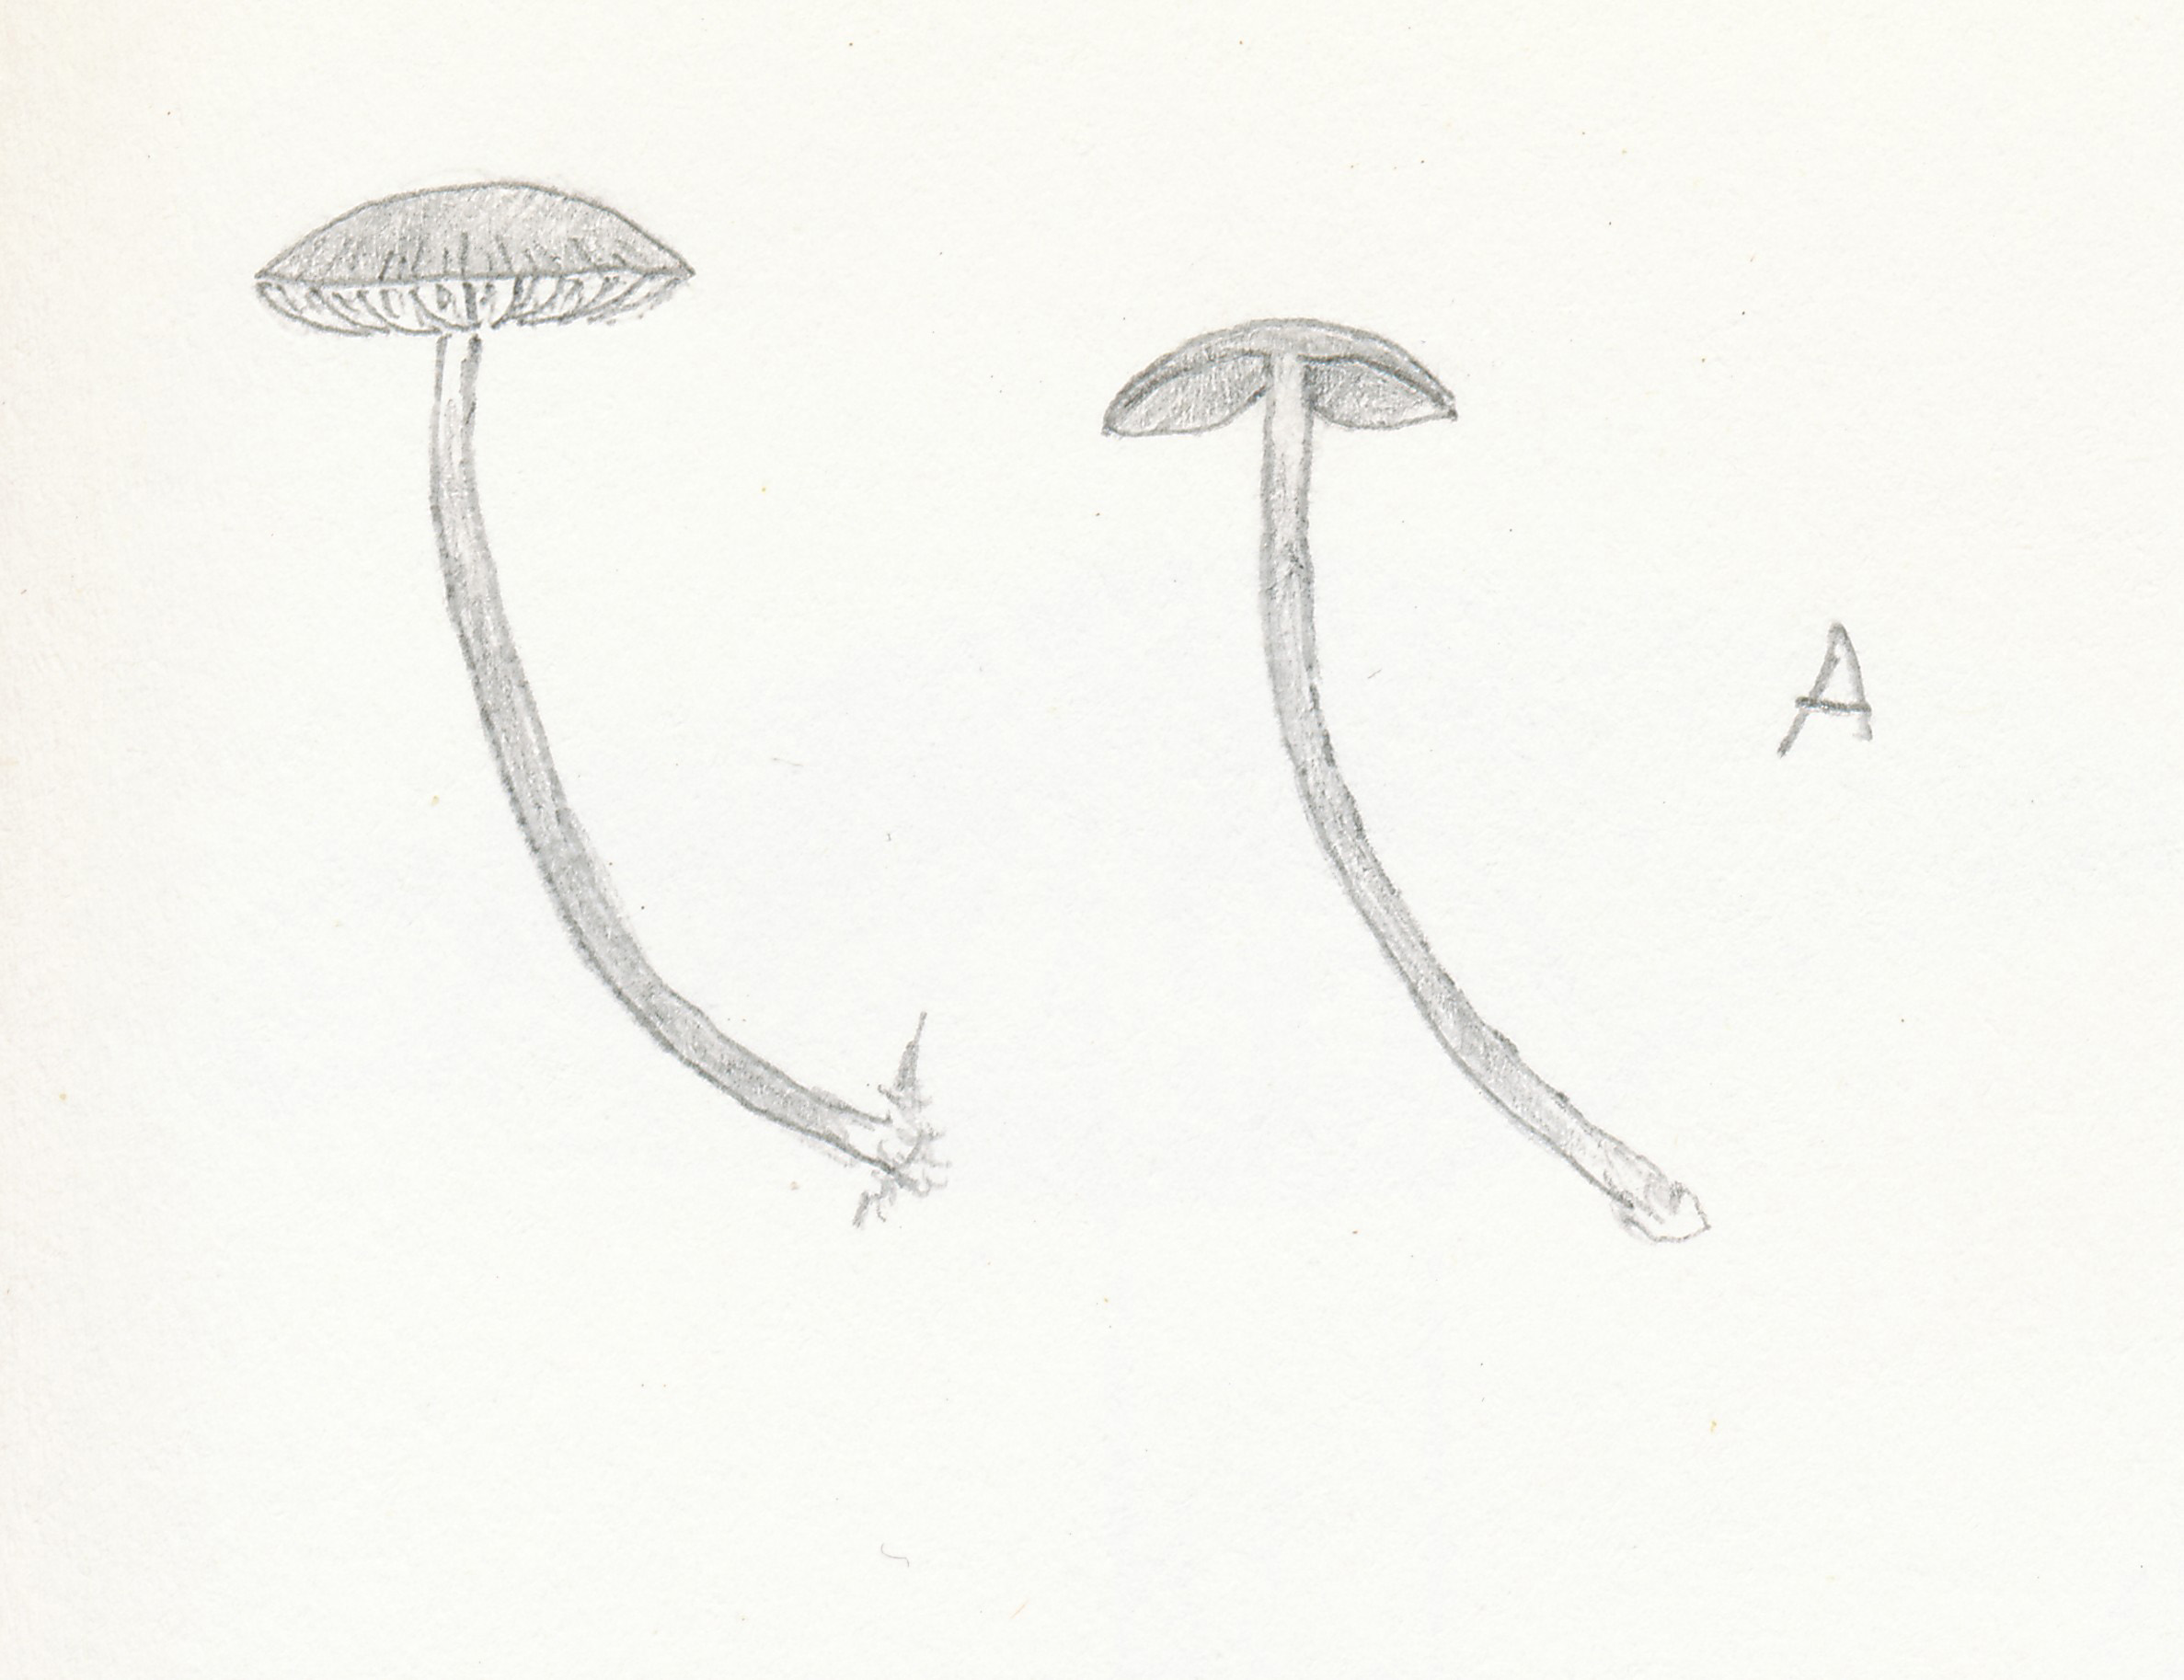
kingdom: Fungi
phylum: Basidiomycota
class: Agaricomycetes
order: Agaricales
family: Crepidotaceae
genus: Simocybe
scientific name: Simocybe centunculus
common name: enlig skyggehat
